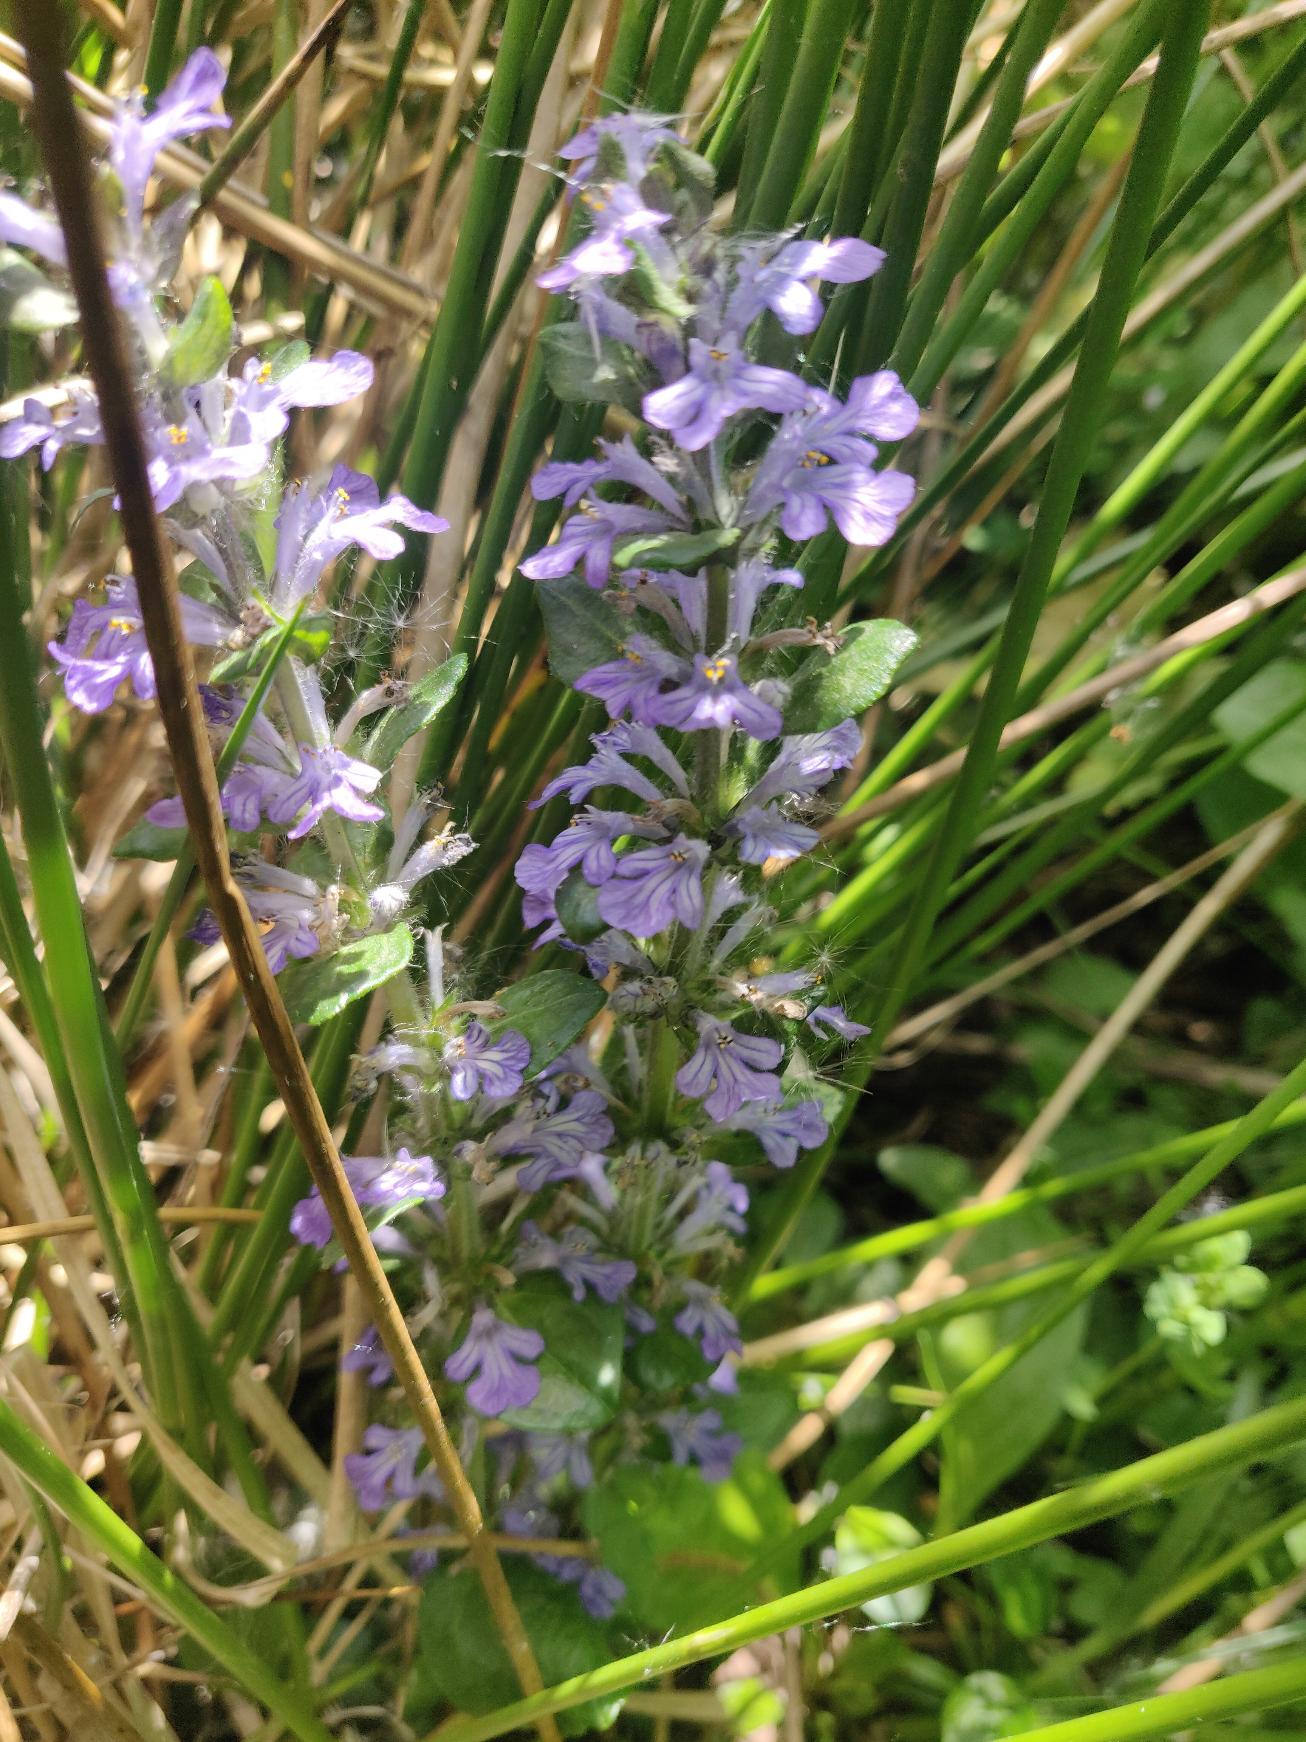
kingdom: Plantae
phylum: Tracheophyta
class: Magnoliopsida
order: Lamiales
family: Lamiaceae
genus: Ajuga
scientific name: Ajuga reptans
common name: Krybende læbeløs
